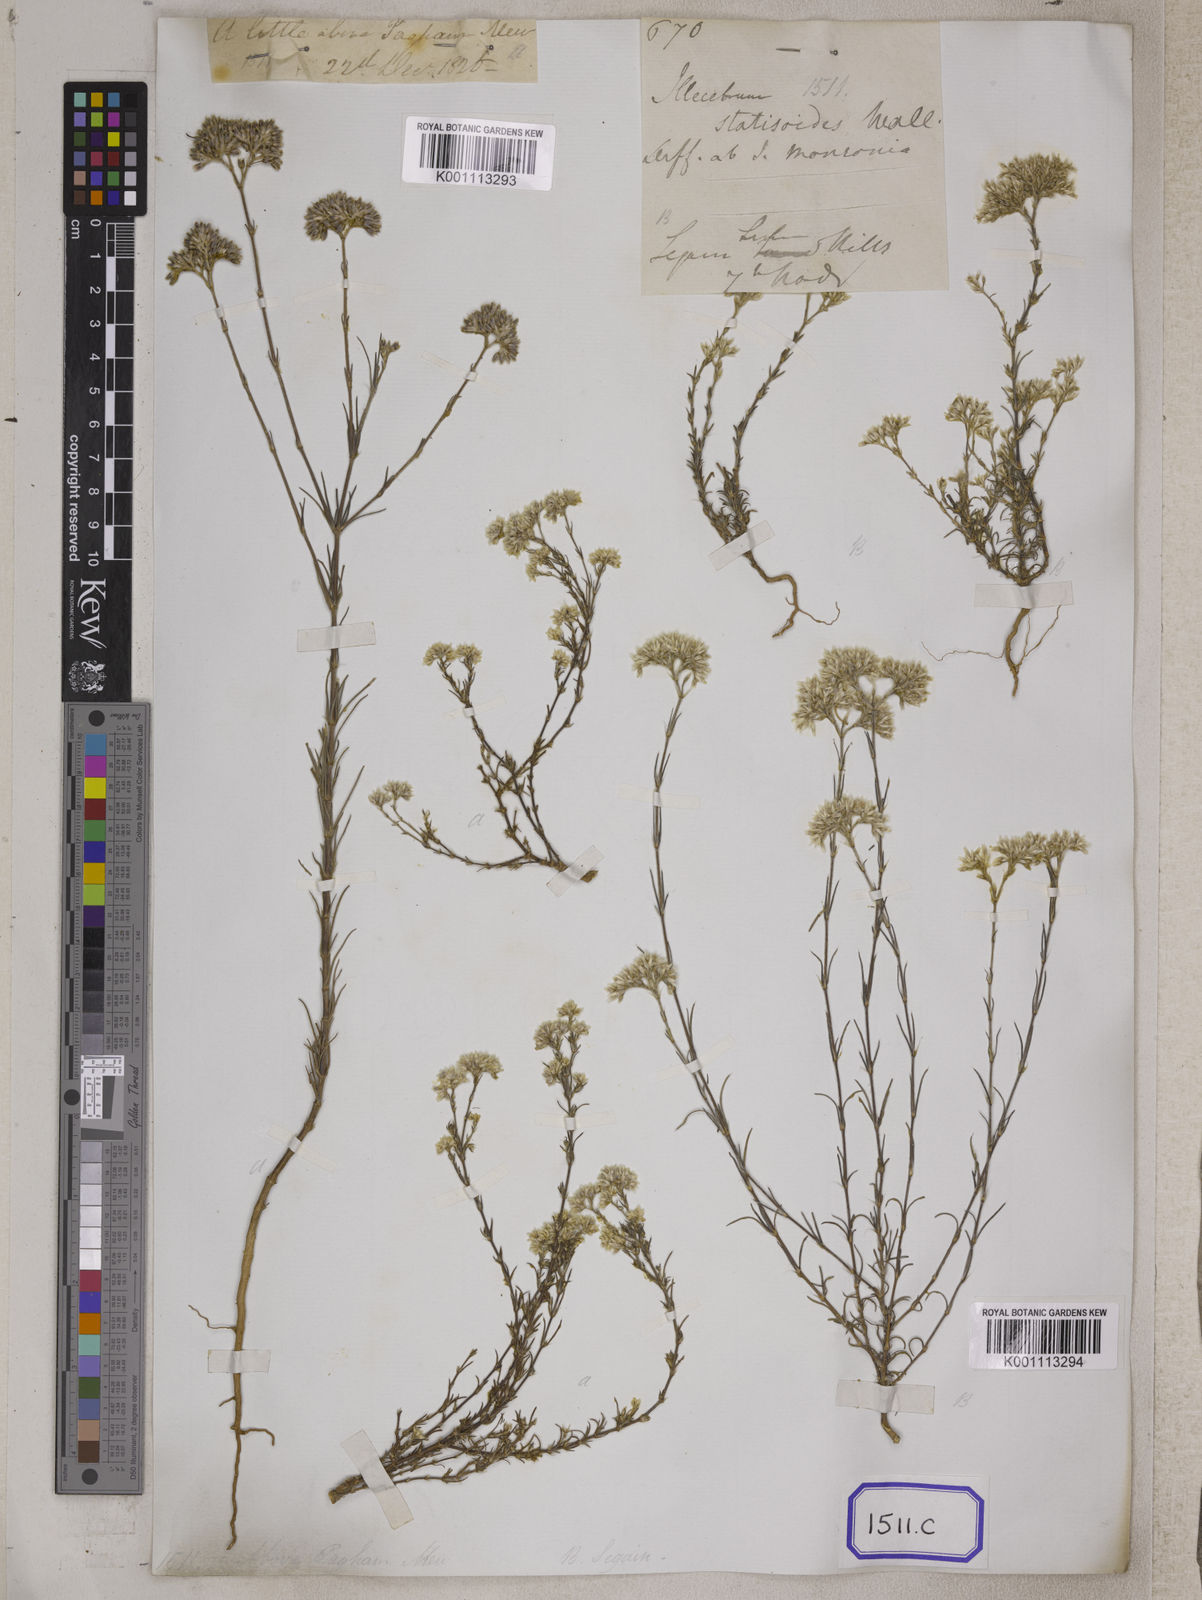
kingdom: Plantae
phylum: Tracheophyta
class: Magnoliopsida
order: Caryophyllales
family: Caryophyllaceae
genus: Polycarpaea
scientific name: Polycarpaea corymbosa
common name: Oldman's cap
